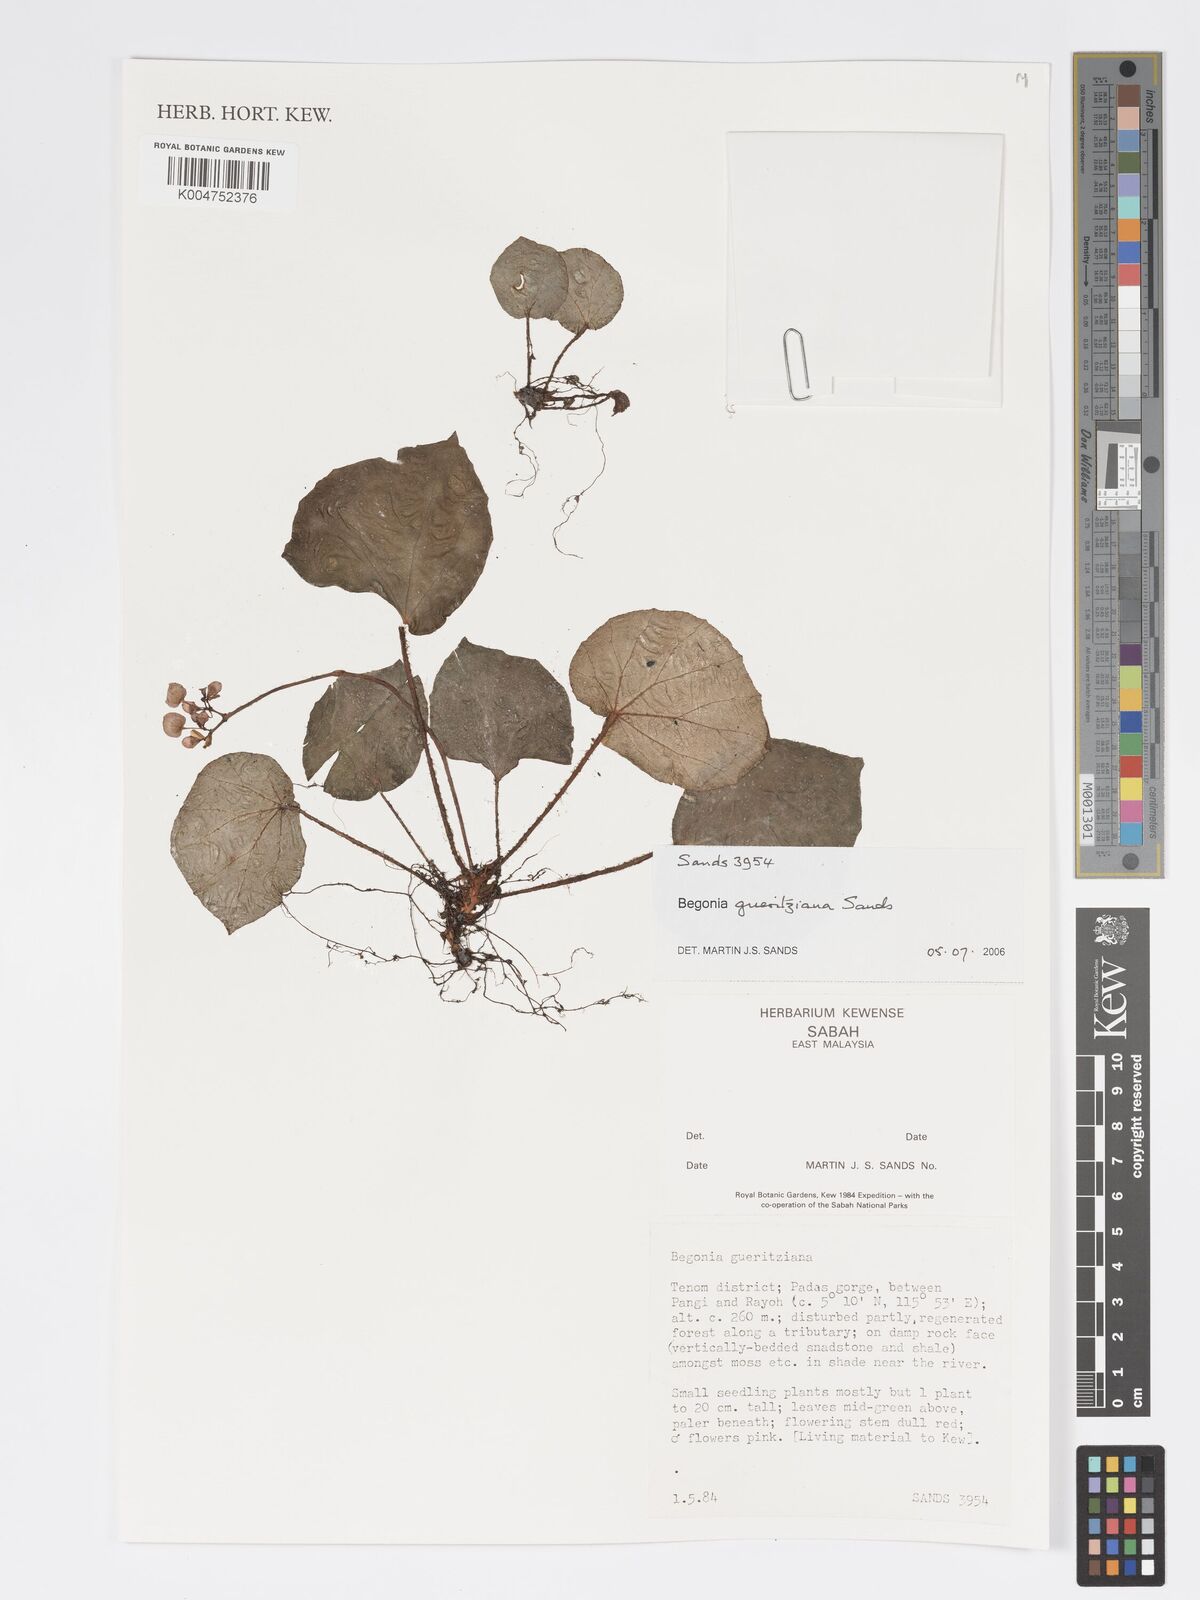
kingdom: Plantae
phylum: Tracheophyta
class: Magnoliopsida
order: Cucurbitales
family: Begoniaceae
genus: Begonia
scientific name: Begonia gueritziana
